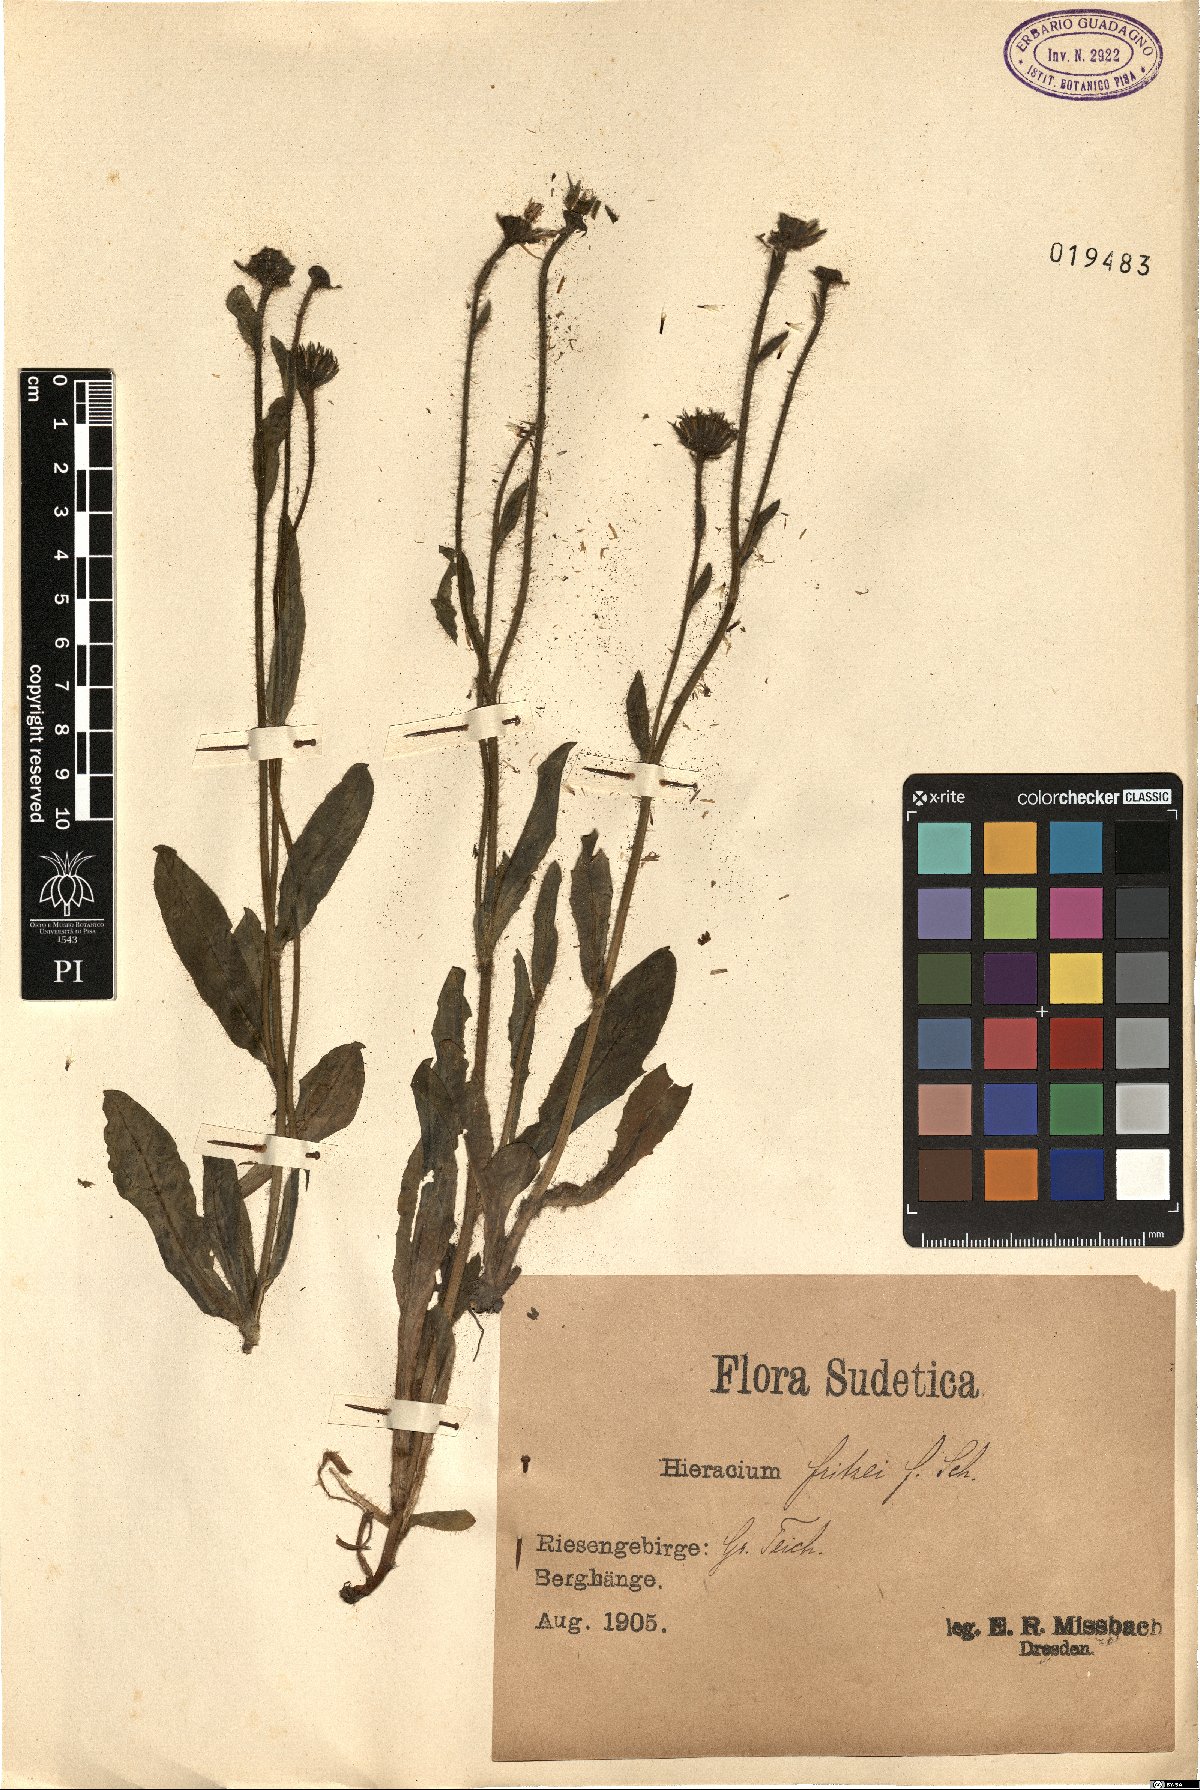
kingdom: Plantae
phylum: Tracheophyta
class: Magnoliopsida
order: Asterales
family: Asteraceae
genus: Hieracium
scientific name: Hieracium fritzei
